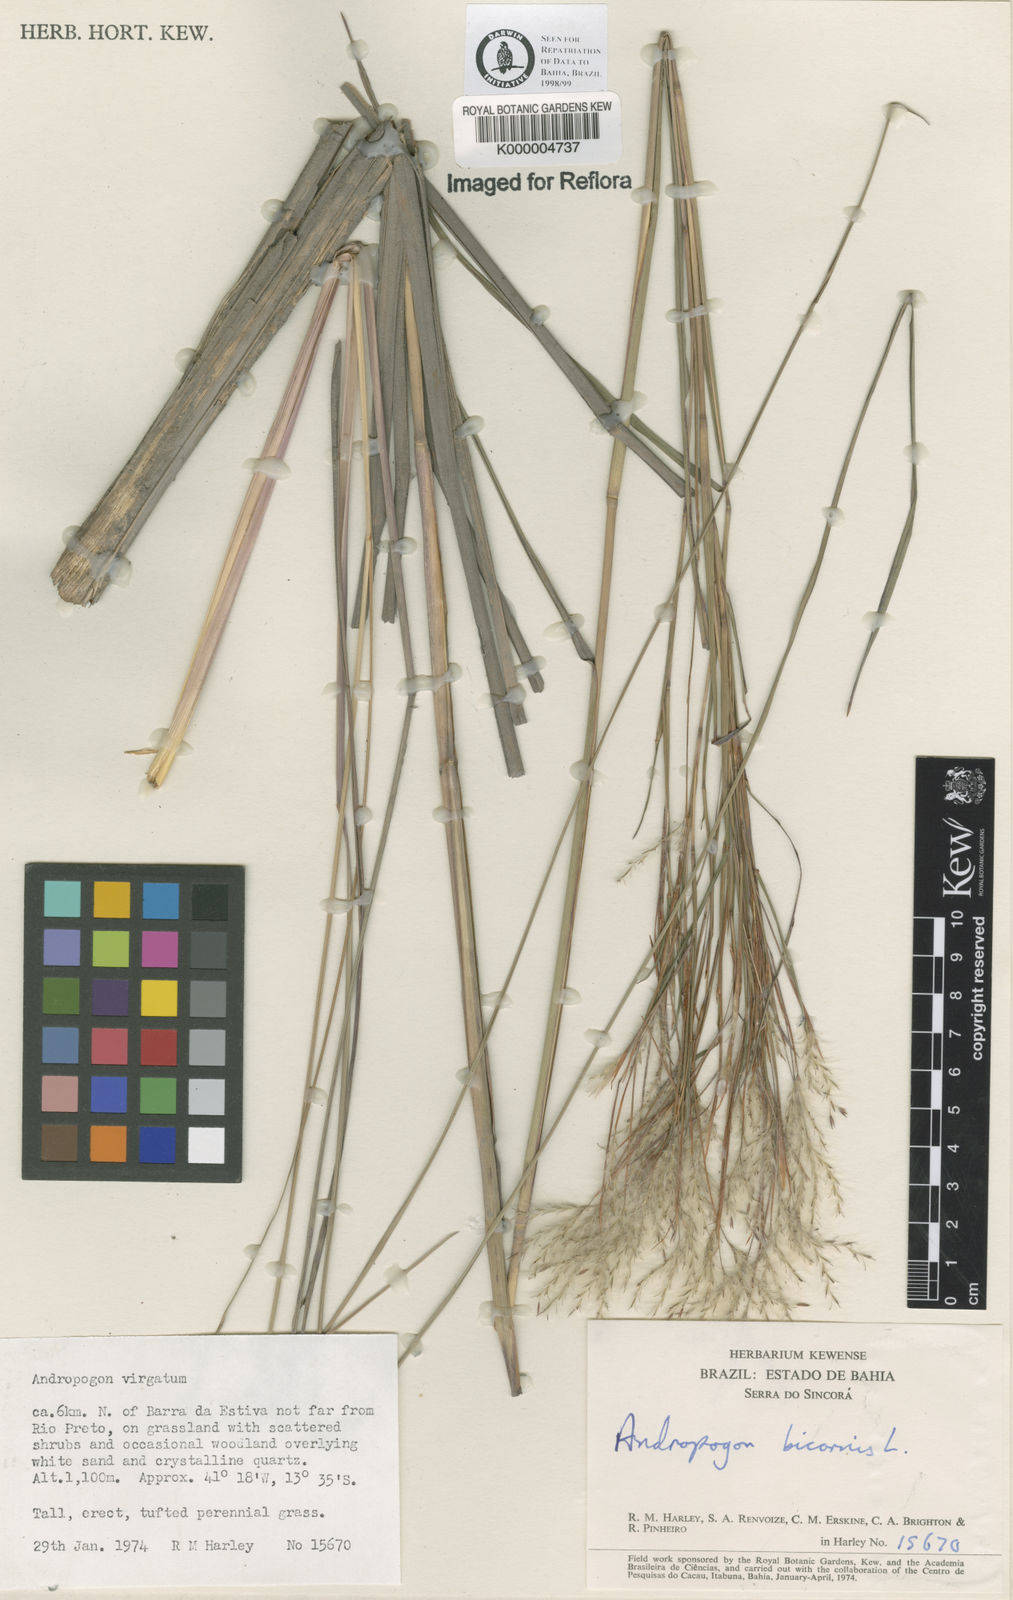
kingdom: Plantae
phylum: Tracheophyta
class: Liliopsida
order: Poales
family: Poaceae
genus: Andropogon
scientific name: Andropogon bicornis
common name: West indian foxtail grass
